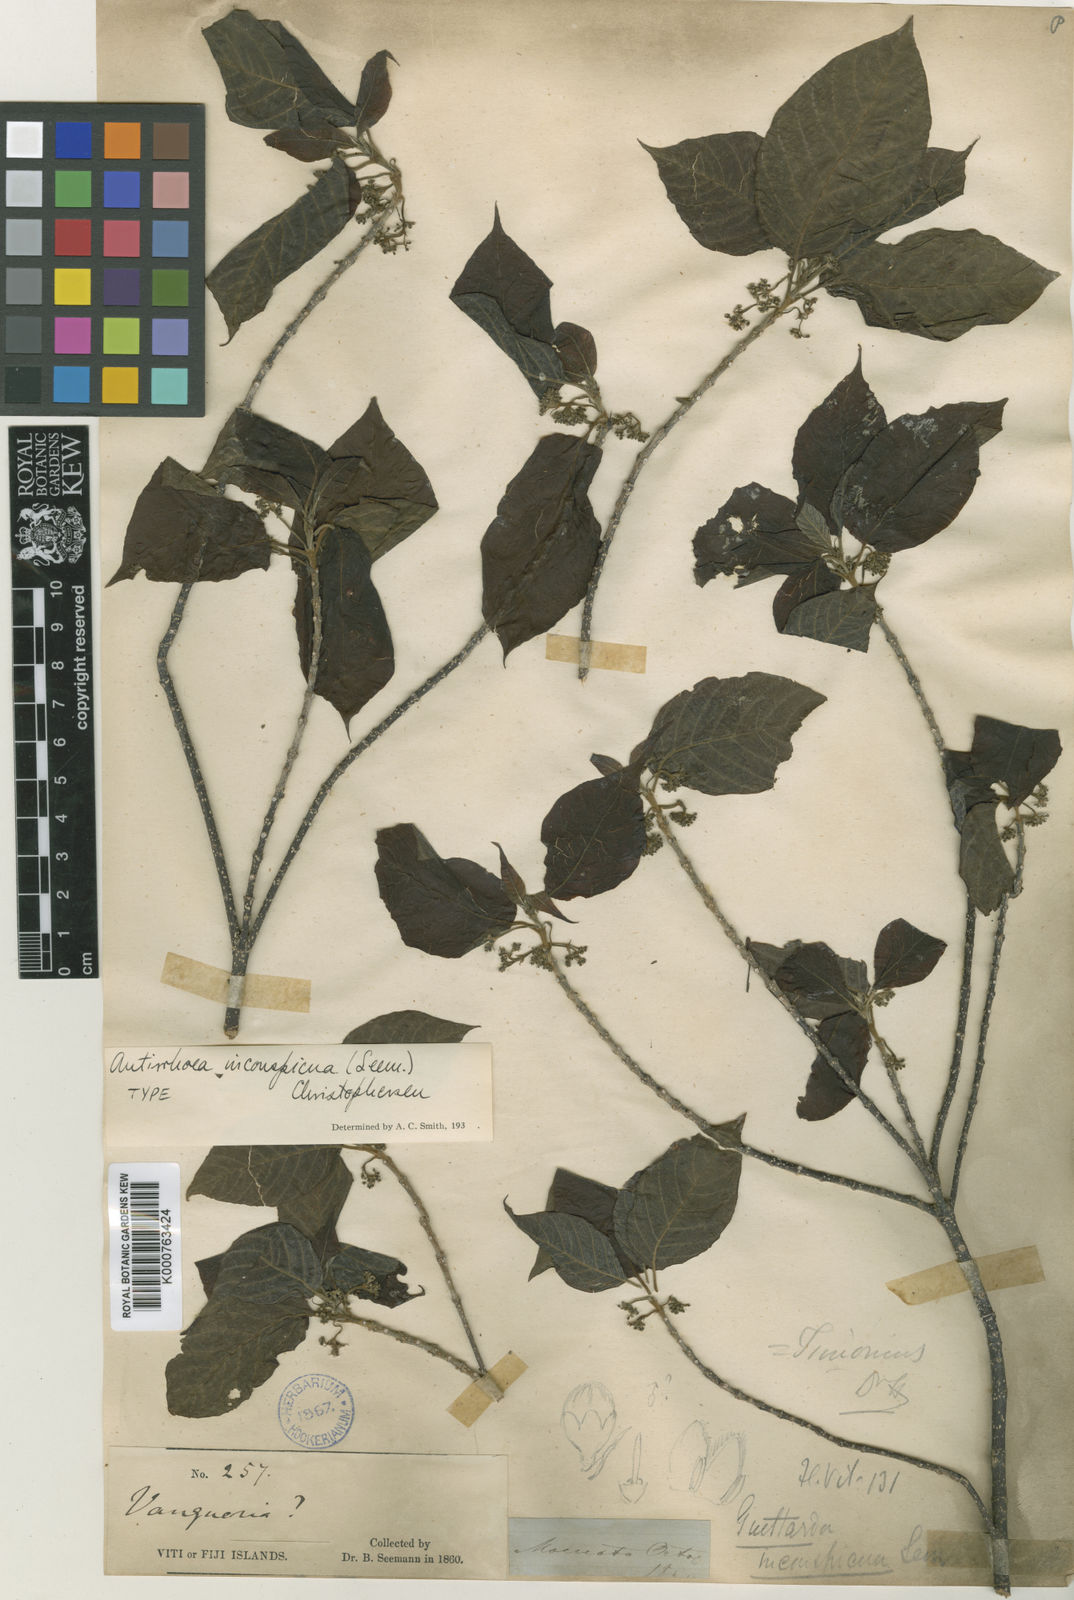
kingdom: Plantae
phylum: Tracheophyta
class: Magnoliopsida
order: Gentianales
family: Rubiaceae
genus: Guettardella
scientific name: Guettardella inconspicua
